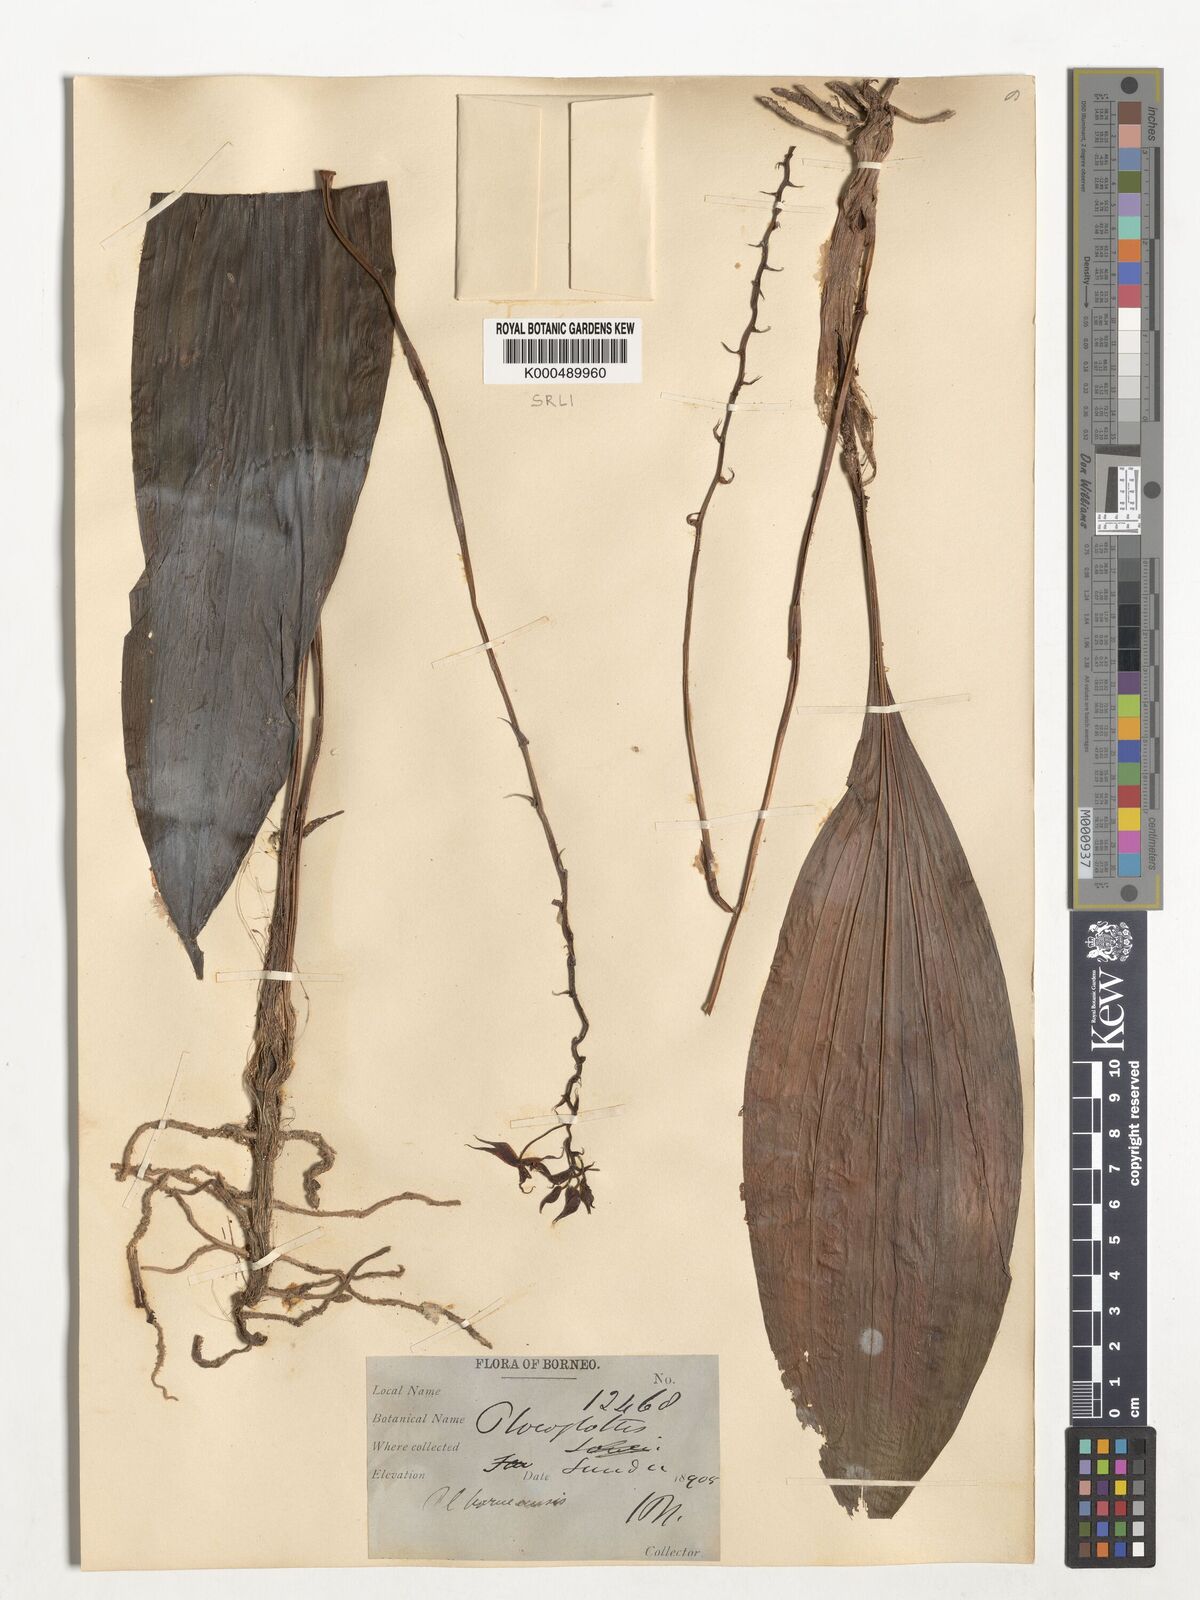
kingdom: Plantae
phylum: Tracheophyta
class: Liliopsida
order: Asparagales
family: Orchidaceae
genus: Plocoglottis
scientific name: Plocoglottis borneensis
